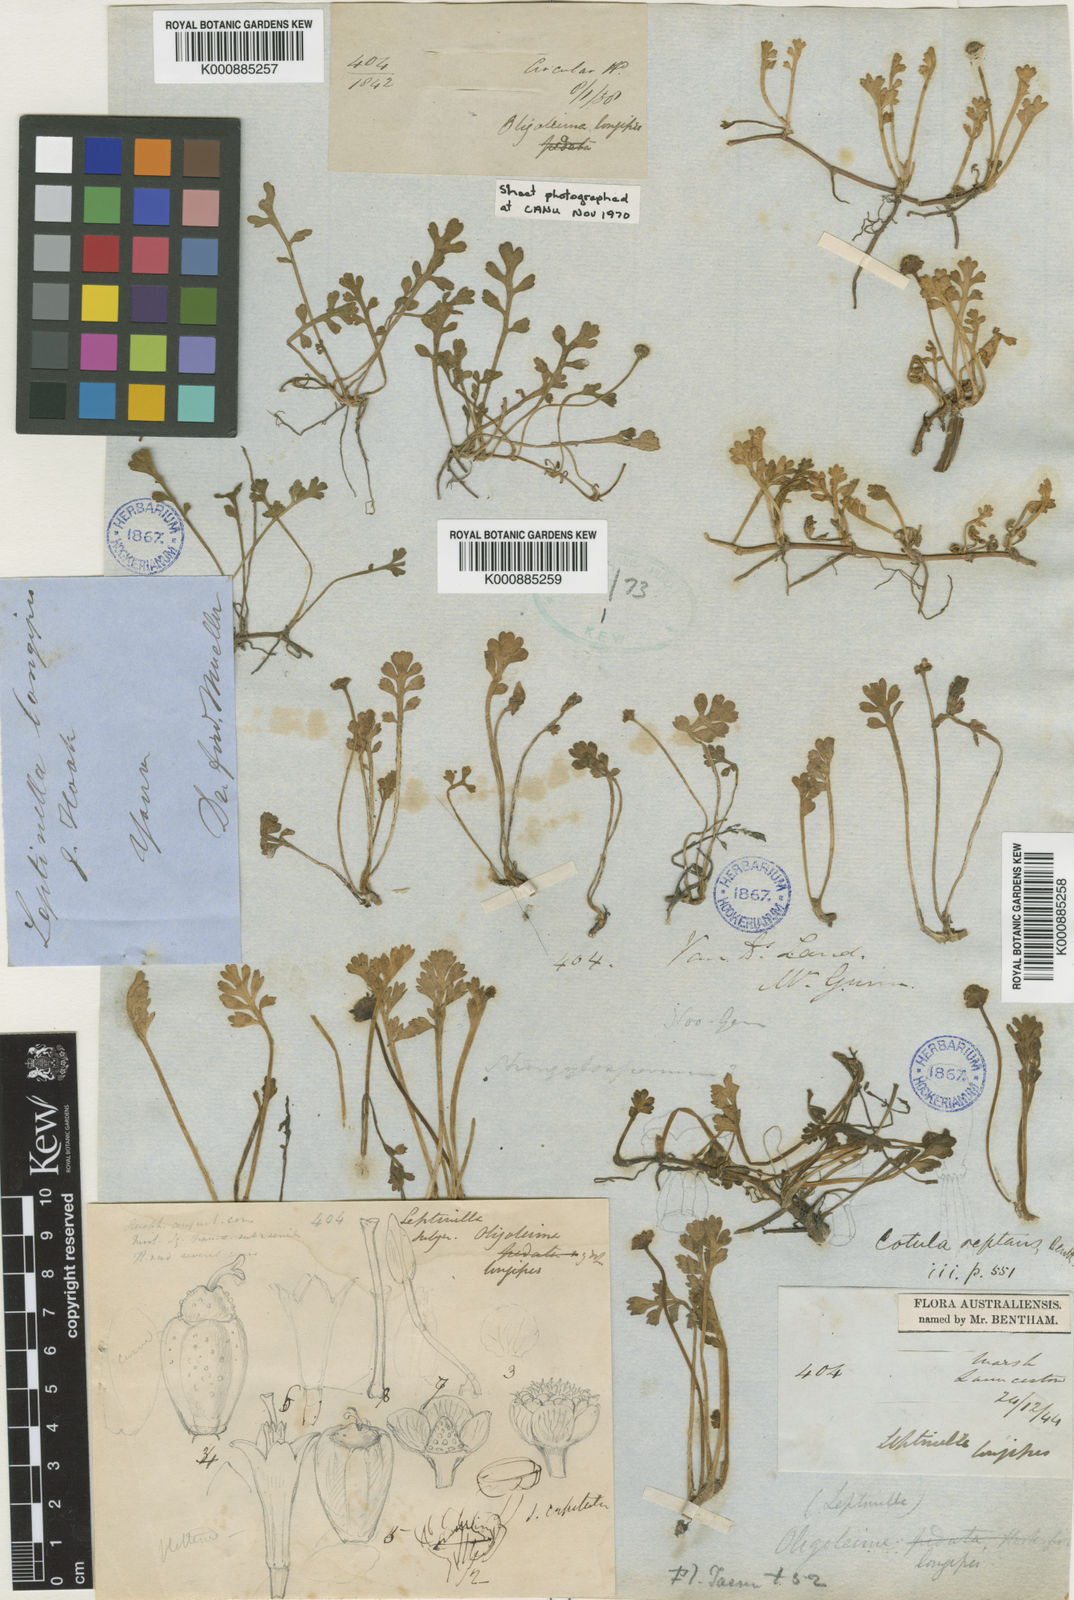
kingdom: Plantae
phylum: Tracheophyta
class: Magnoliopsida
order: Asterales
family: Asteraceae
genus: Leptinella
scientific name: Leptinella longipes
